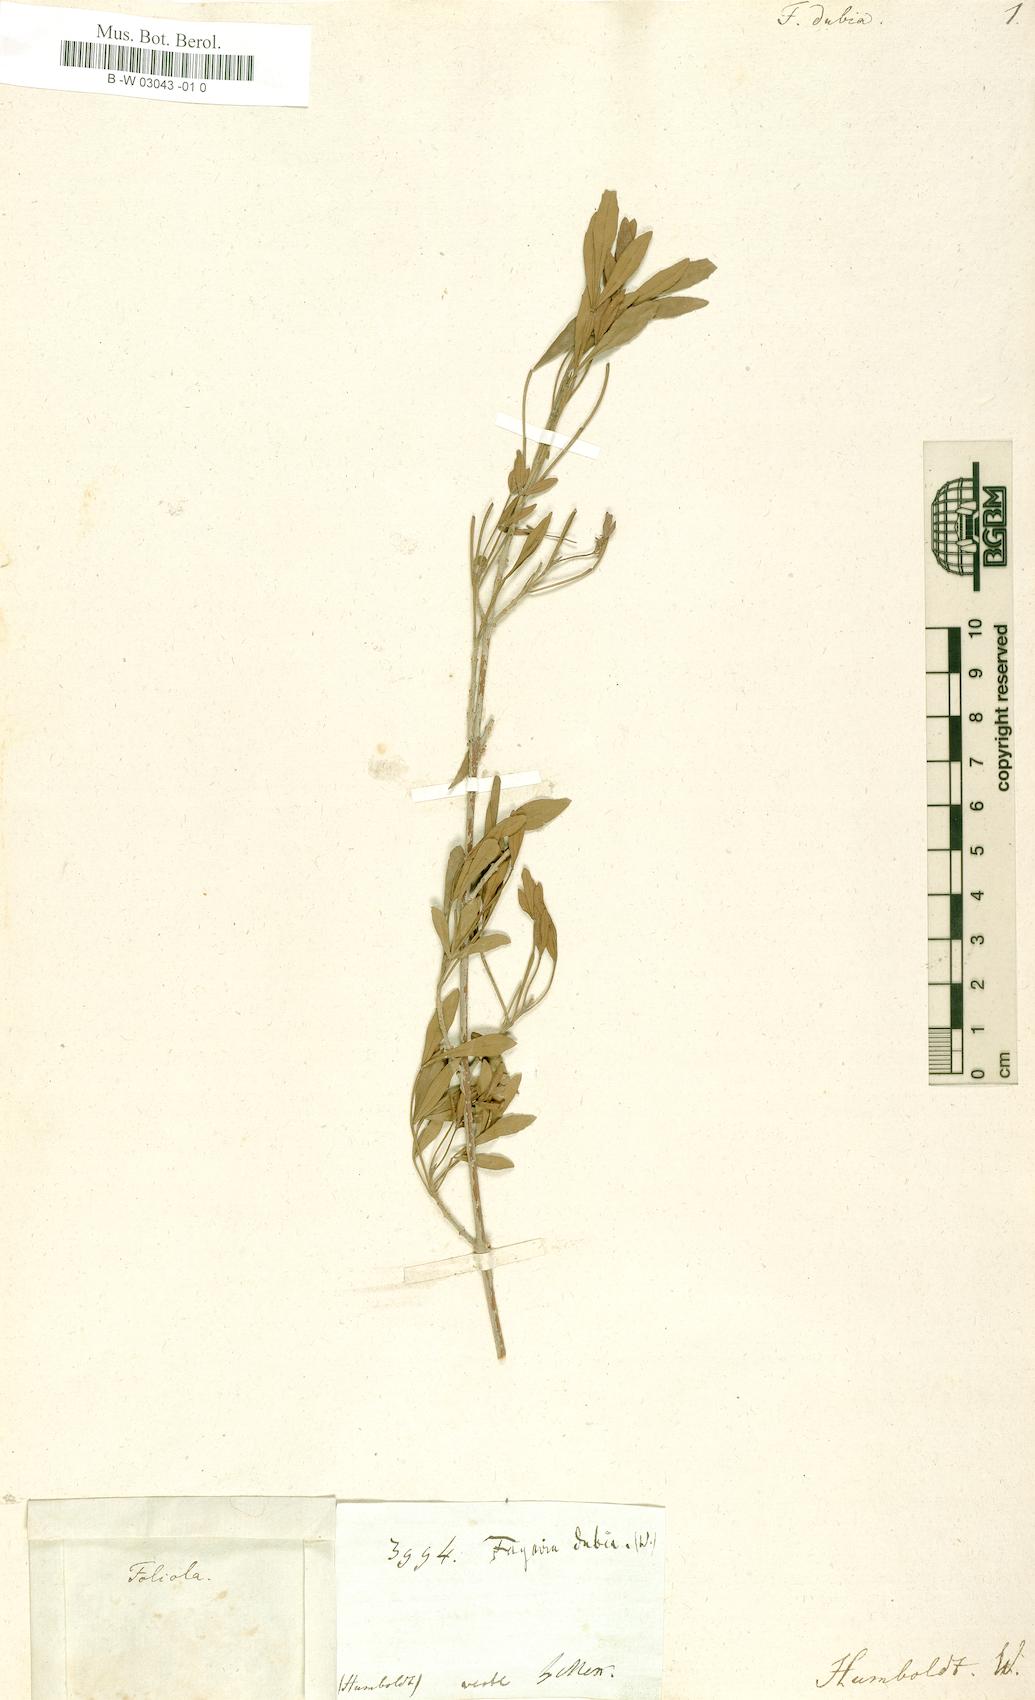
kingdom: Plantae
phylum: Tracheophyta
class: Magnoliopsida
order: Lamiales
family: Oleaceae
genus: Fraxinus
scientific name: Fraxinus schiedeana
